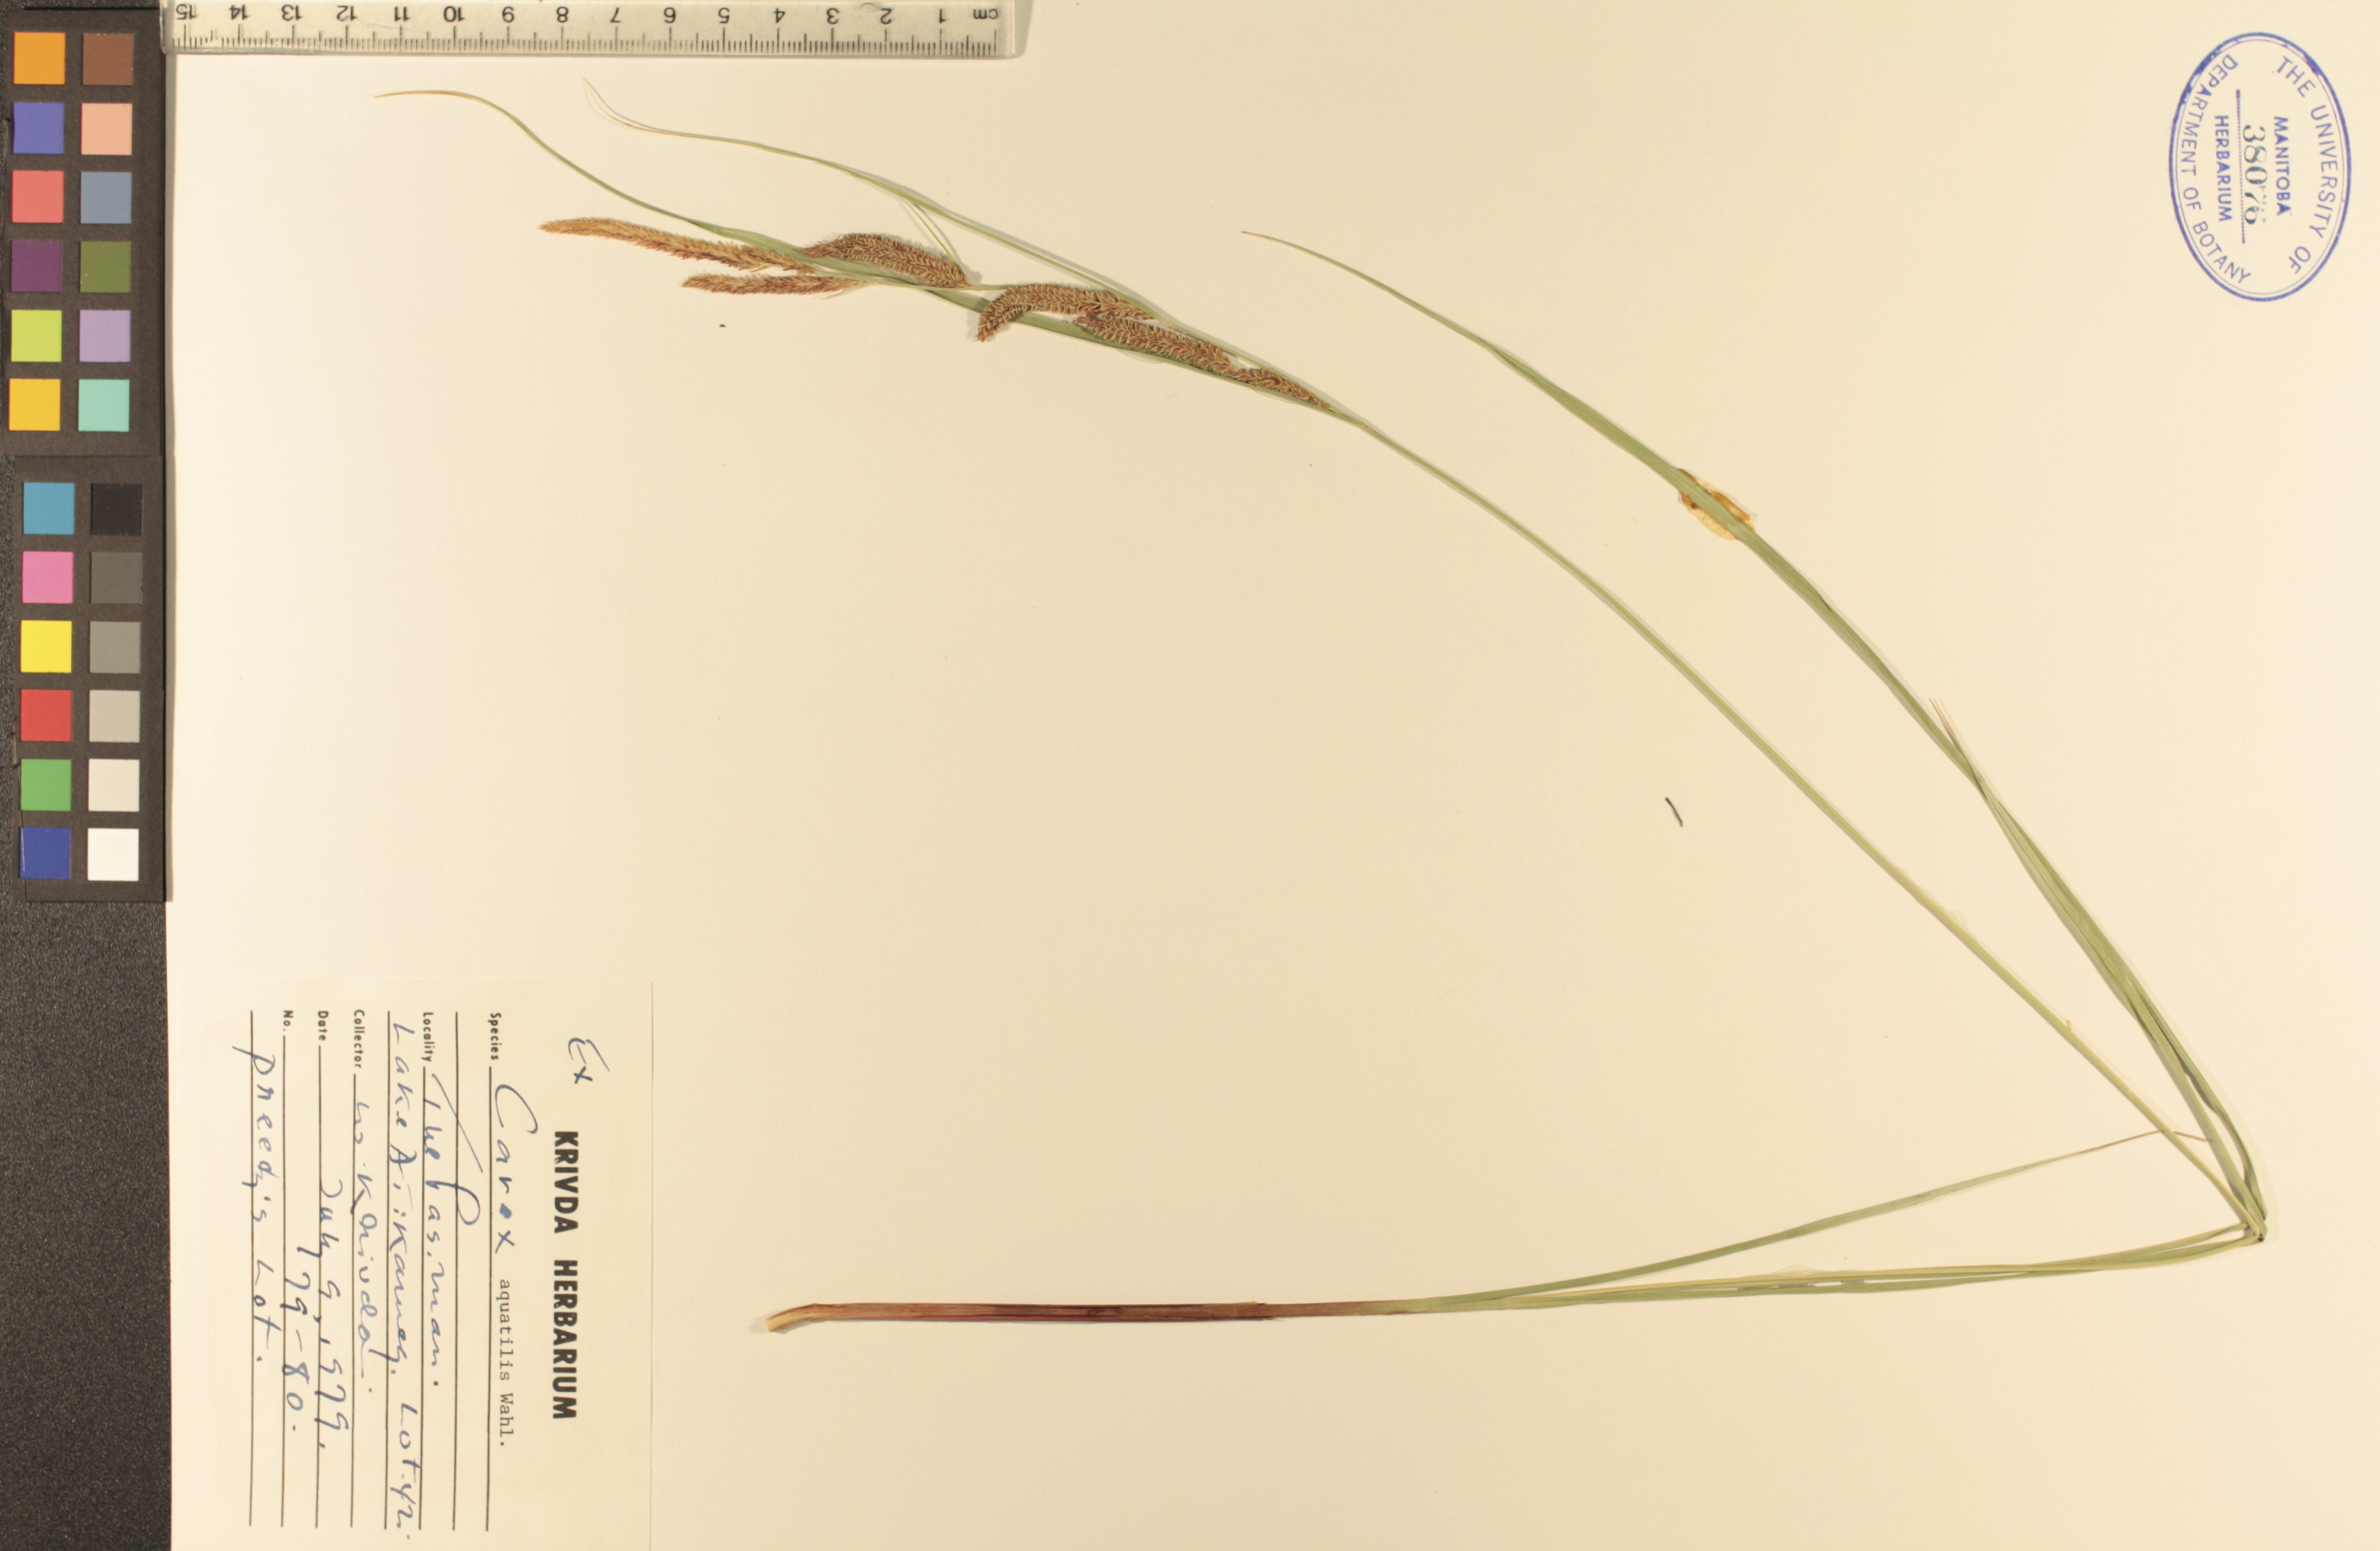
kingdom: Plantae
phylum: Tracheophyta
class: Liliopsida
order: Poales
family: Cyperaceae
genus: Carex
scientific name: Carex aquatilis
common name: Water sedge
